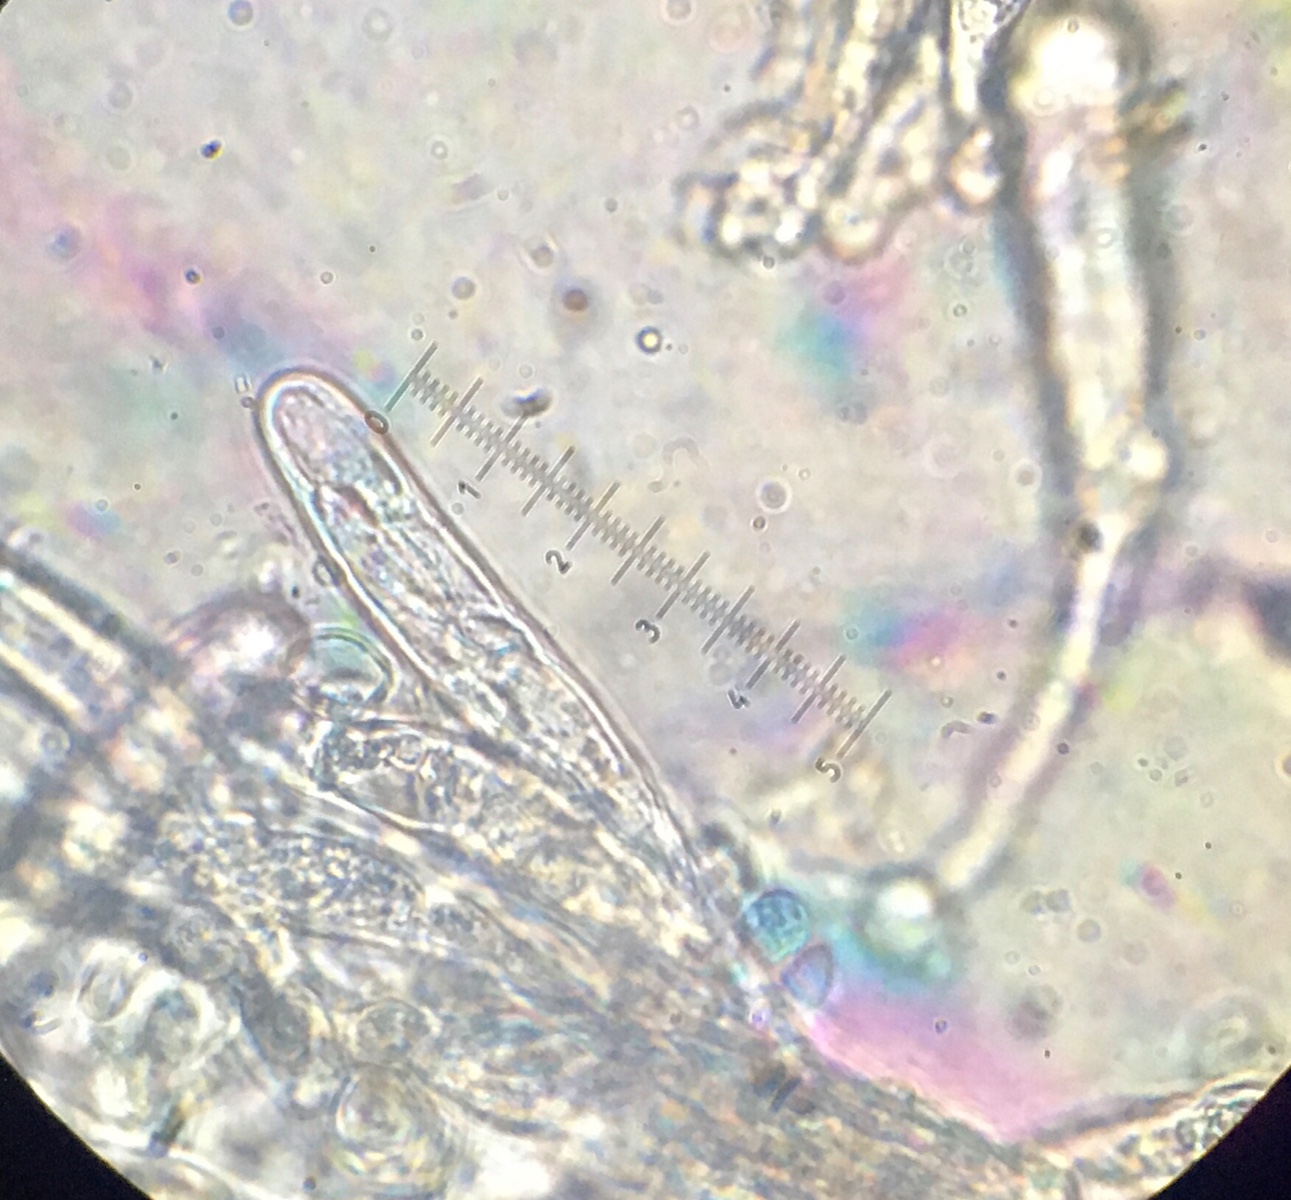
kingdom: Fungi
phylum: Ascomycota
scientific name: Ascomycota
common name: sæksvampe
